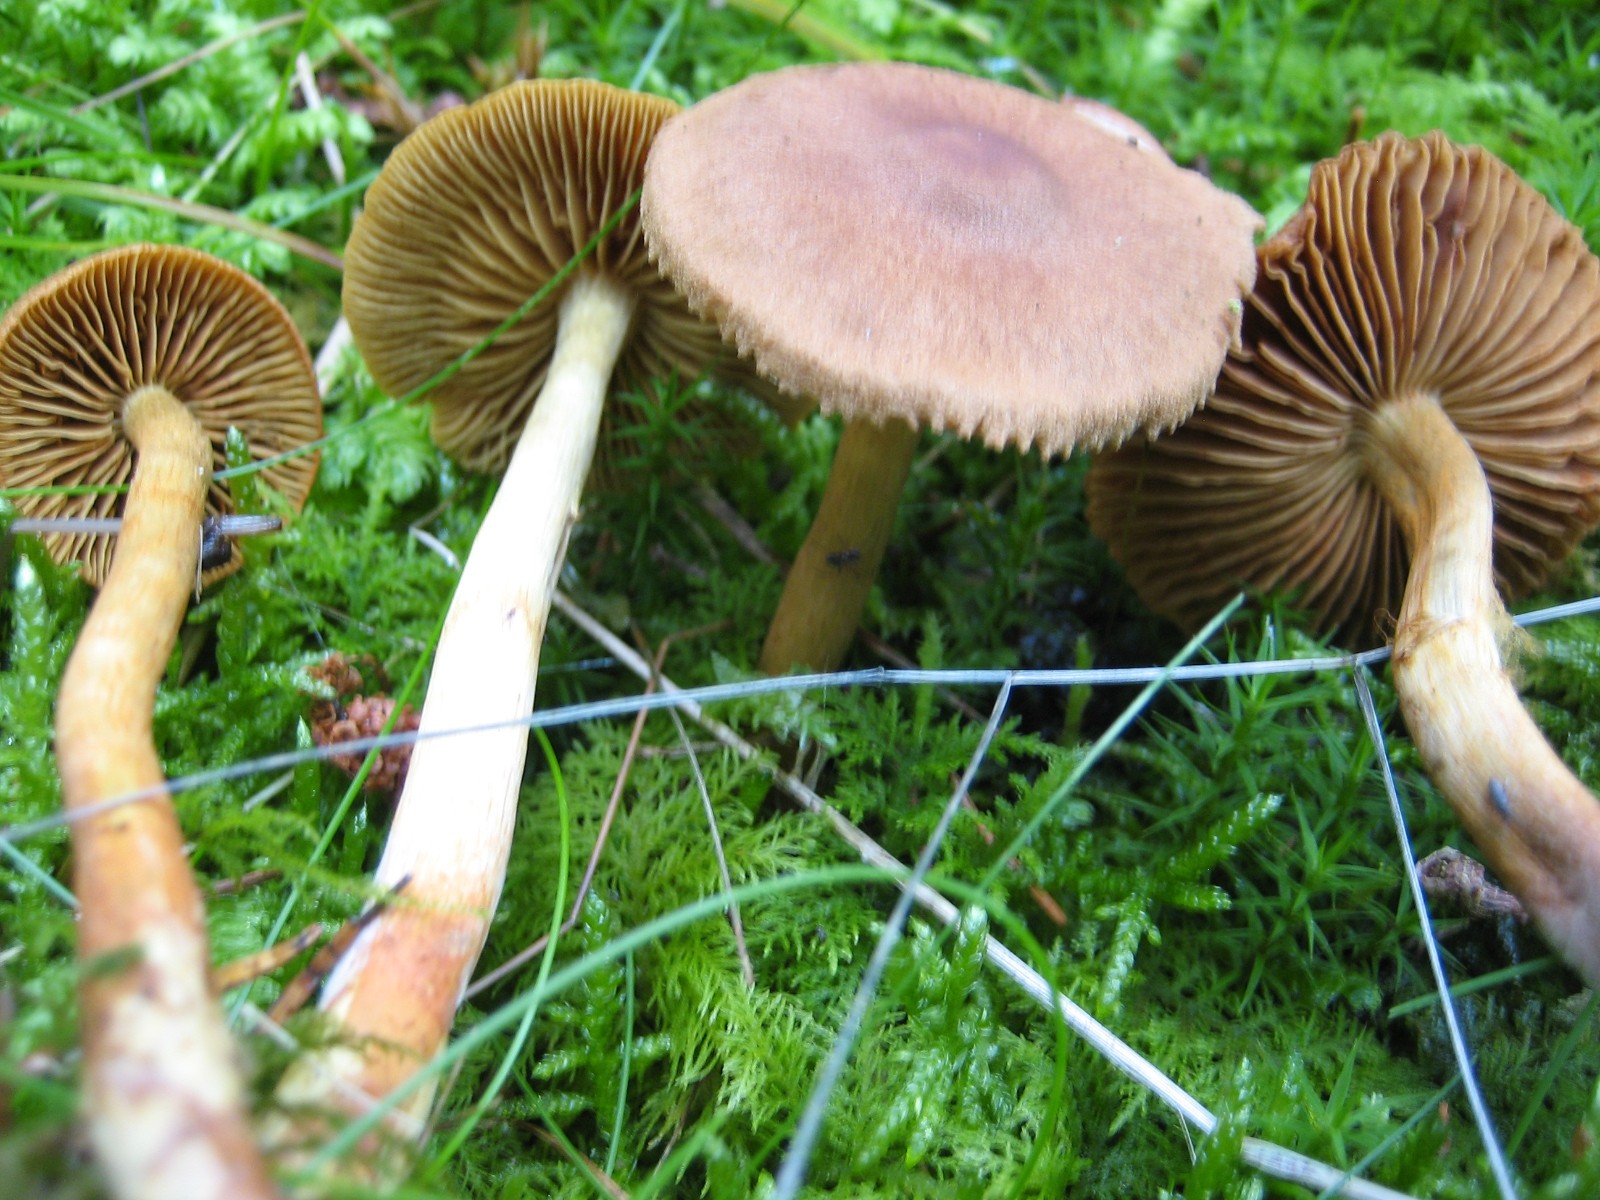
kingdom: Fungi
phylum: Basidiomycota
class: Agaricomycetes
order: Agaricales
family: Cortinariaceae
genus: Cortinarius
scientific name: Cortinarius
